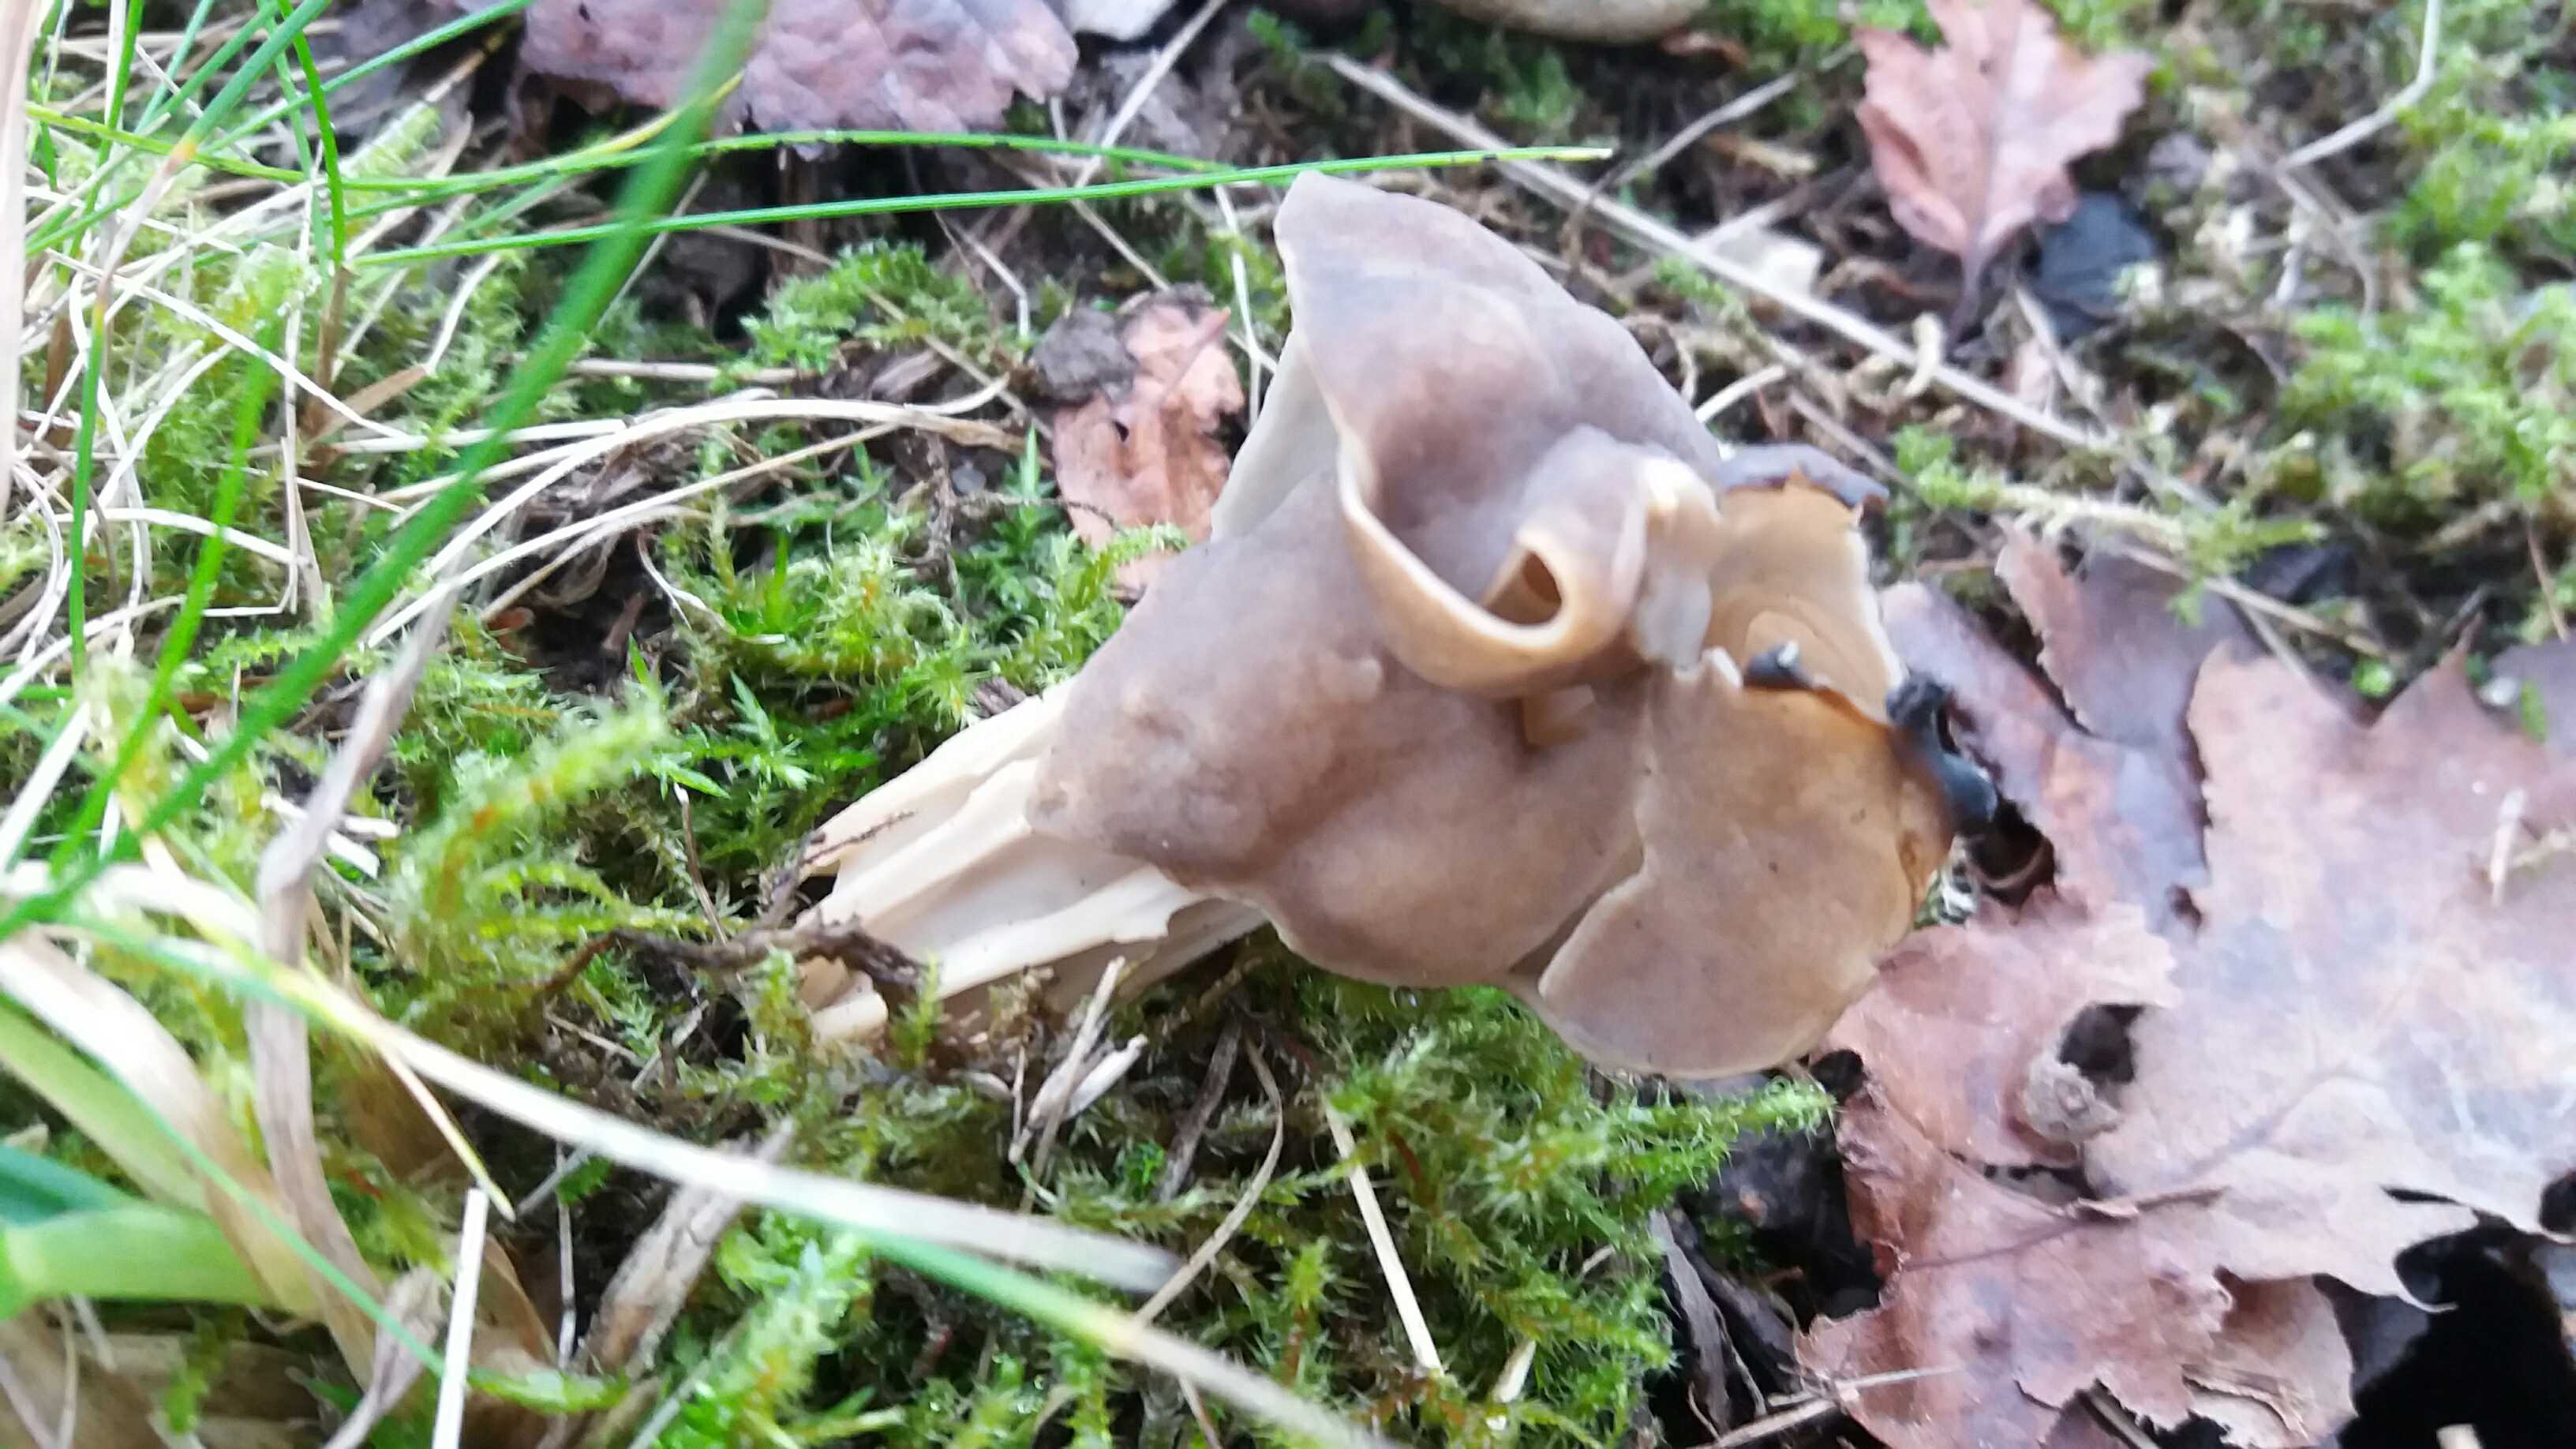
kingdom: Fungi
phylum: Ascomycota
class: Pezizomycetes
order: Pezizales
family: Helvellaceae
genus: Helvella
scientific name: Helvella lacunosa
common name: grubet foldhat
